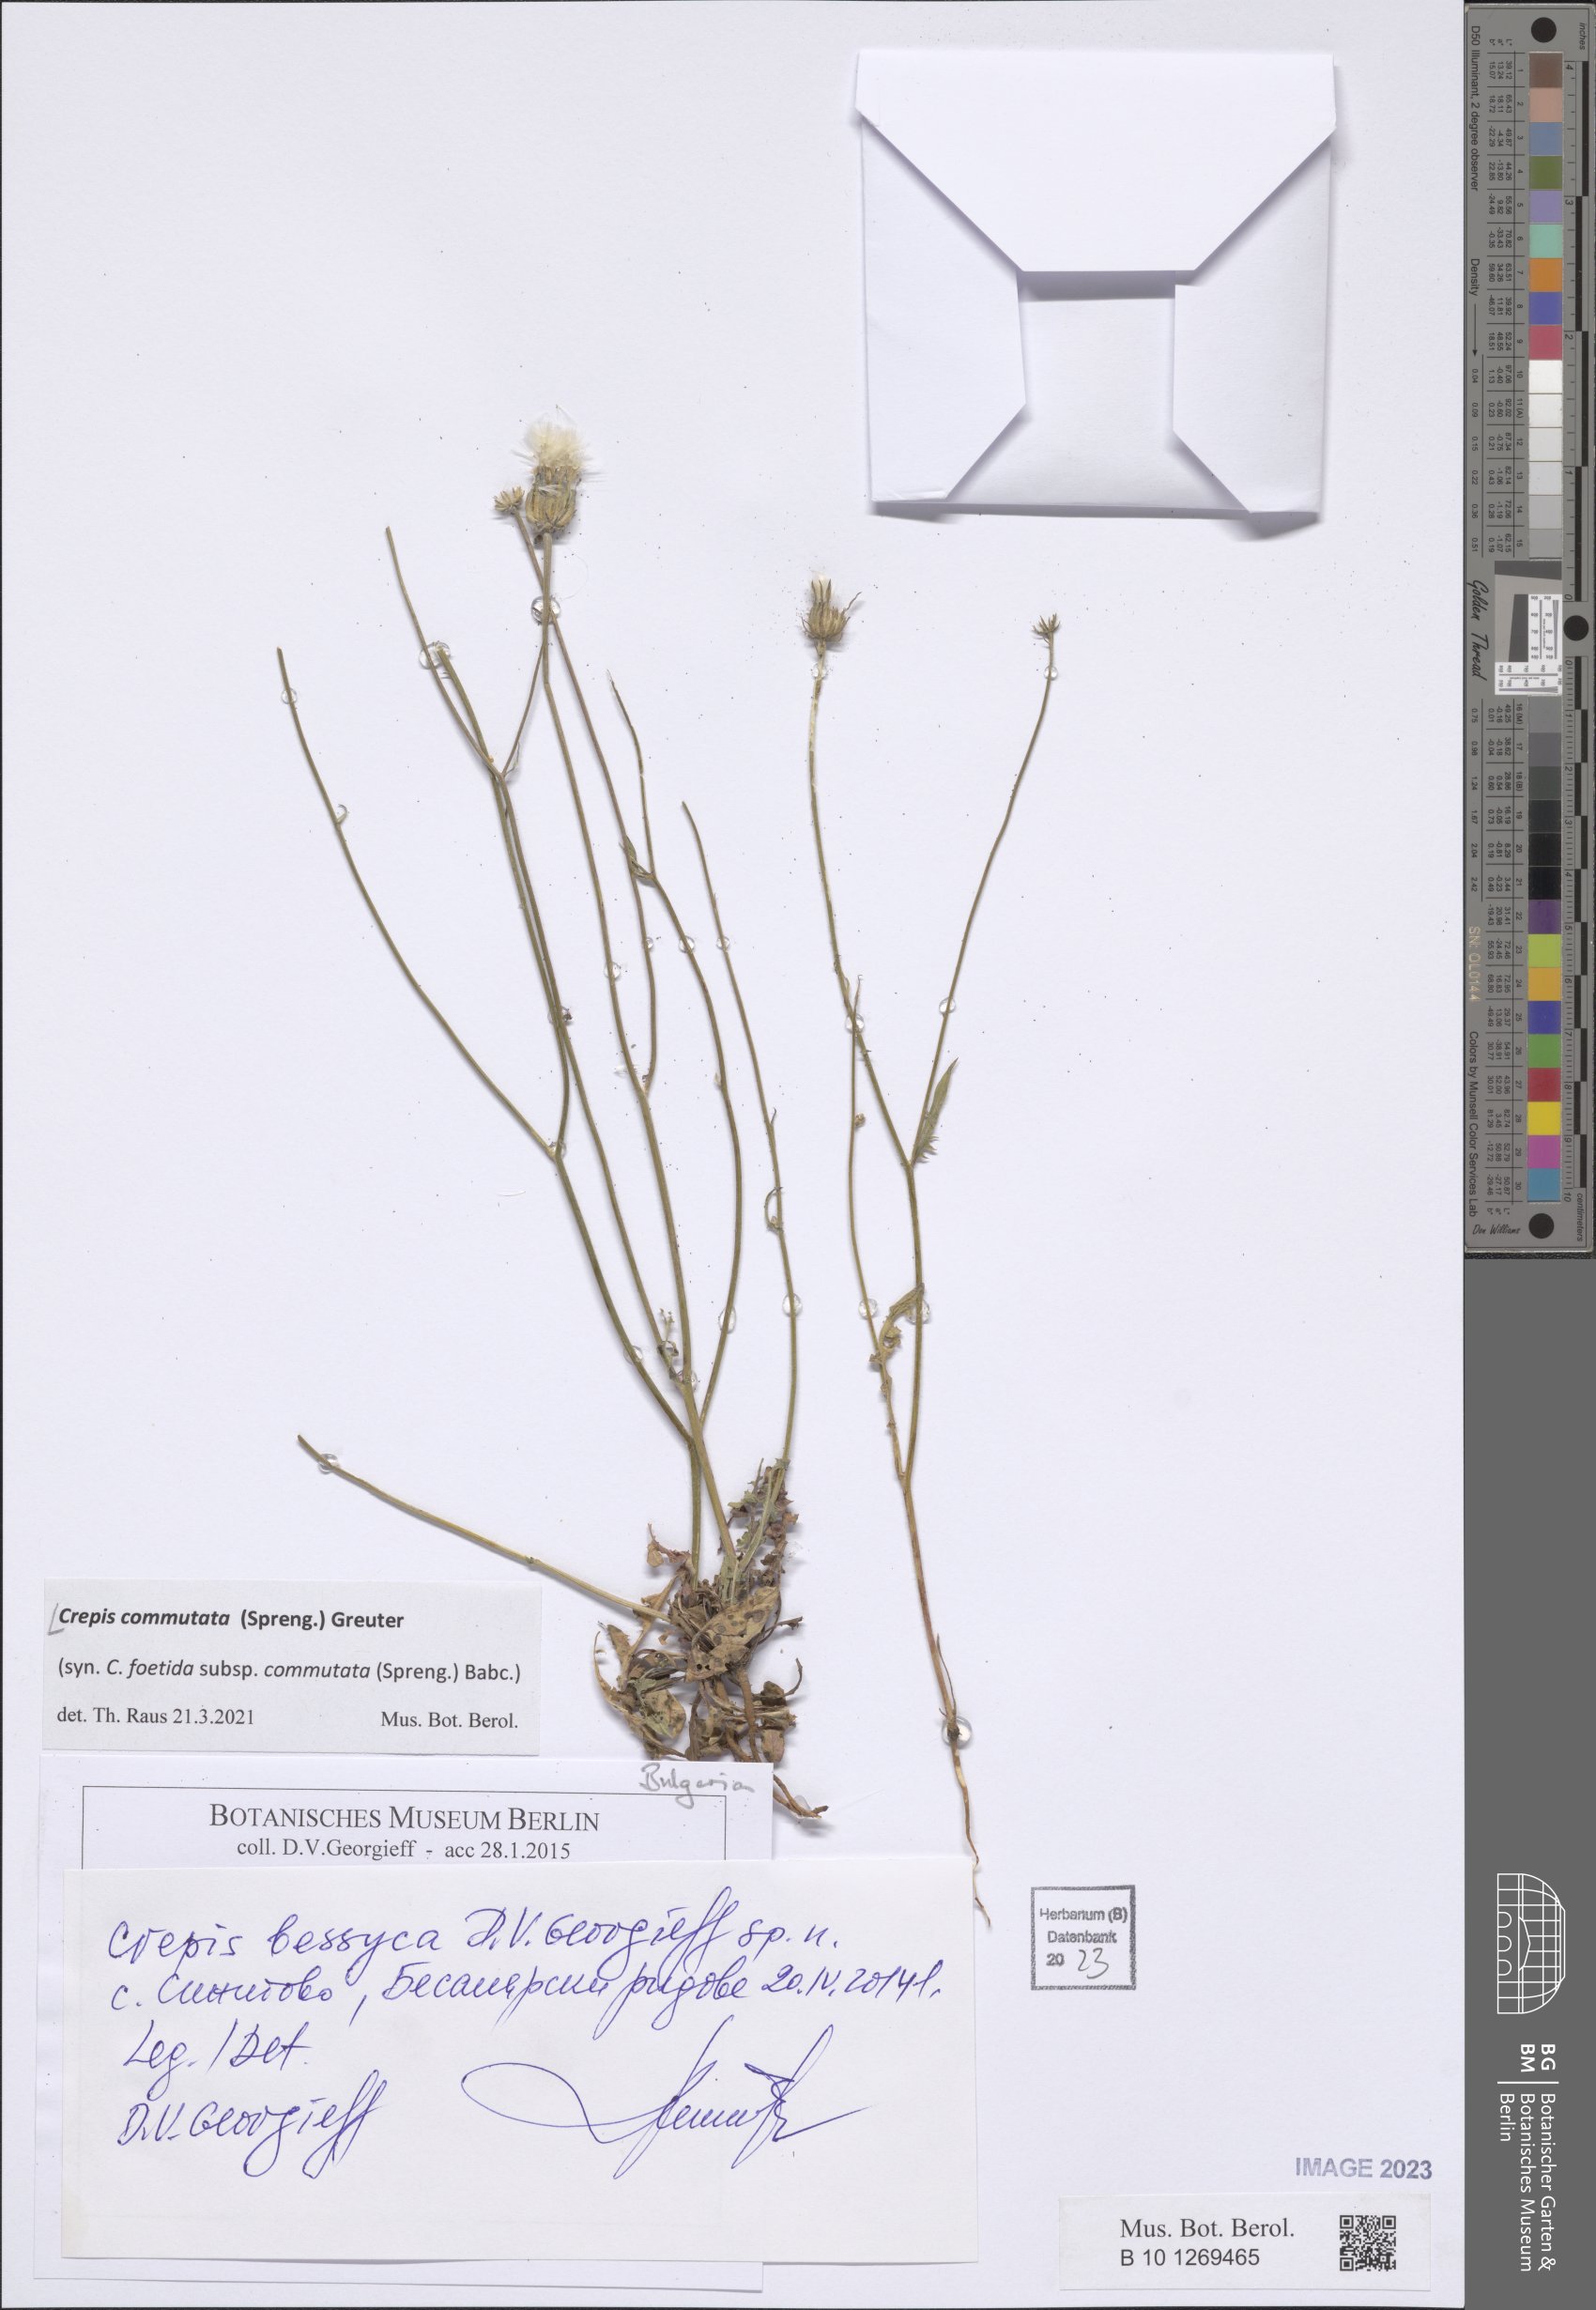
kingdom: Plantae
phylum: Tracheophyta
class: Magnoliopsida
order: Asterales
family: Asteraceae
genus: Crepis
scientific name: Crepis commutata
